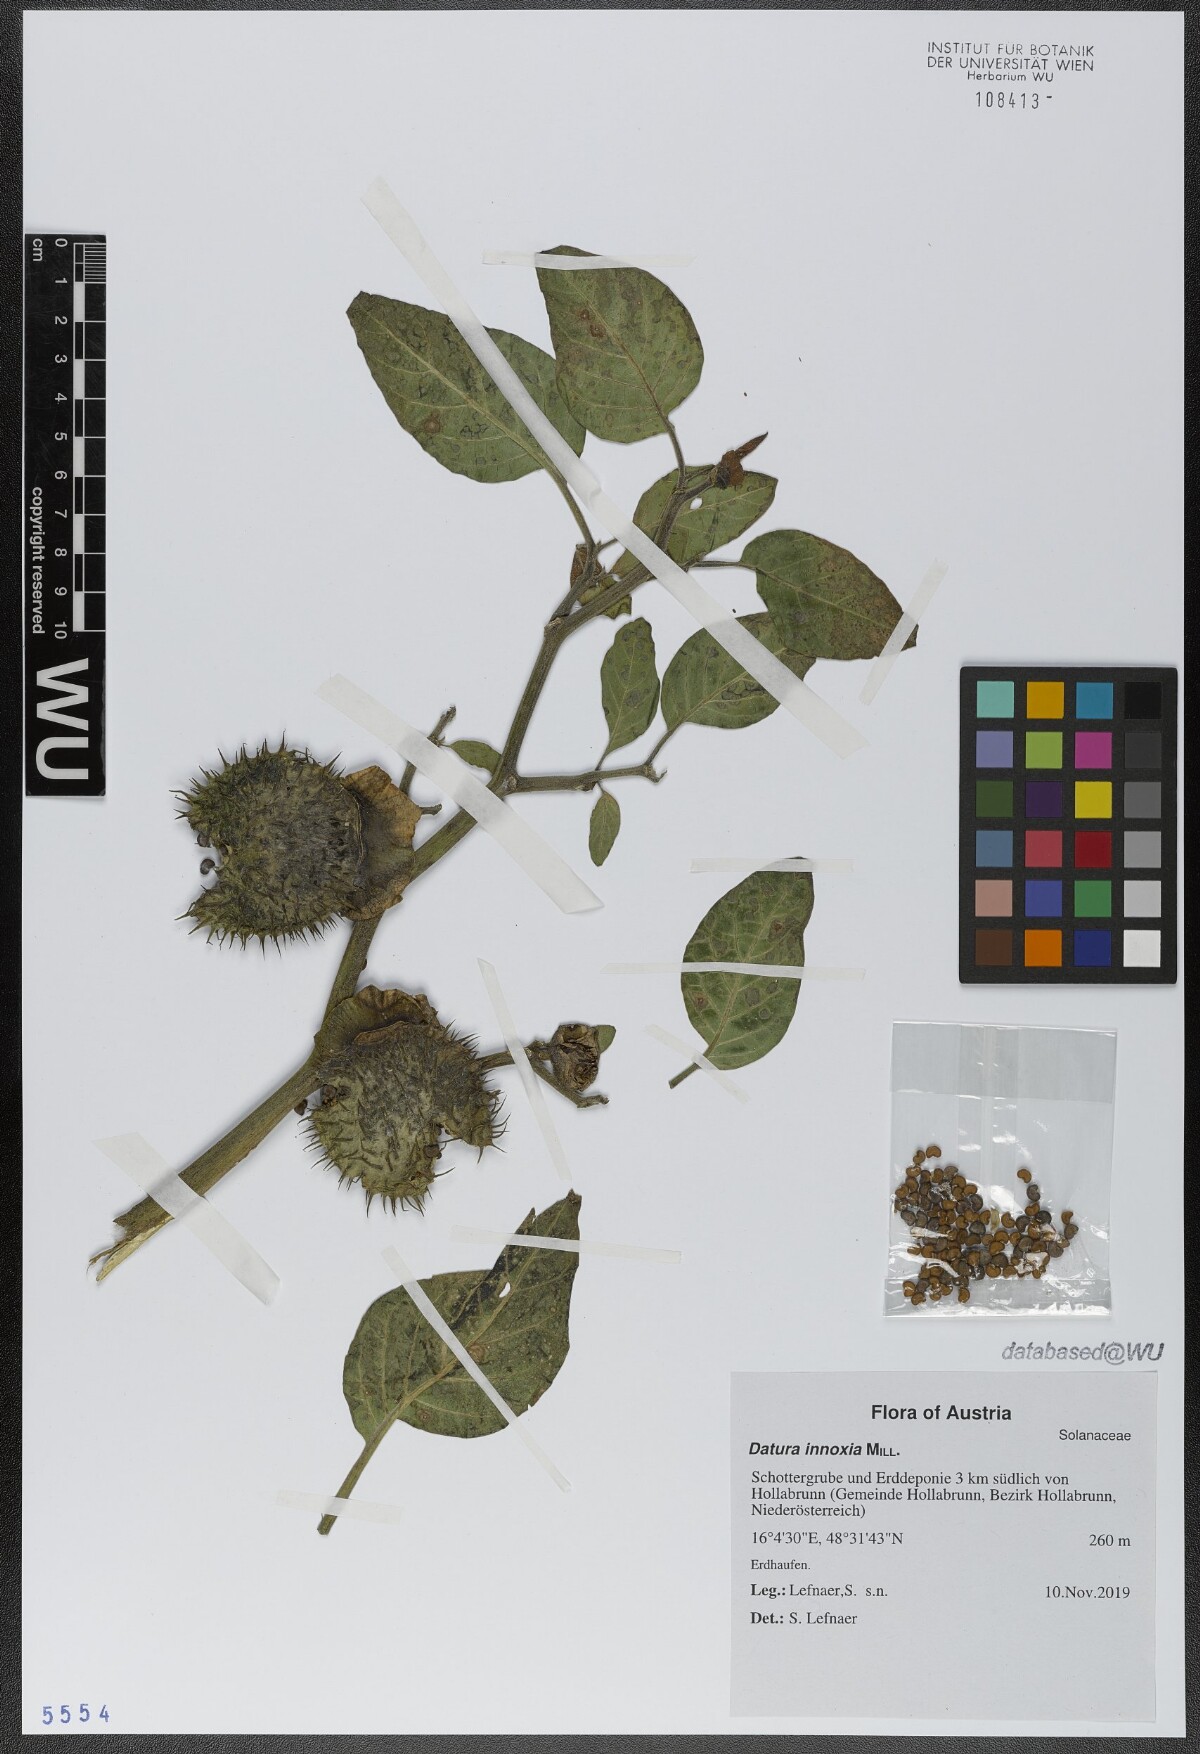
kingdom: Plantae
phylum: Tracheophyta
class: Magnoliopsida
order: Solanales
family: Solanaceae
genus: Datura
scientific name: Datura innoxia
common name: Downy thorn-apple
